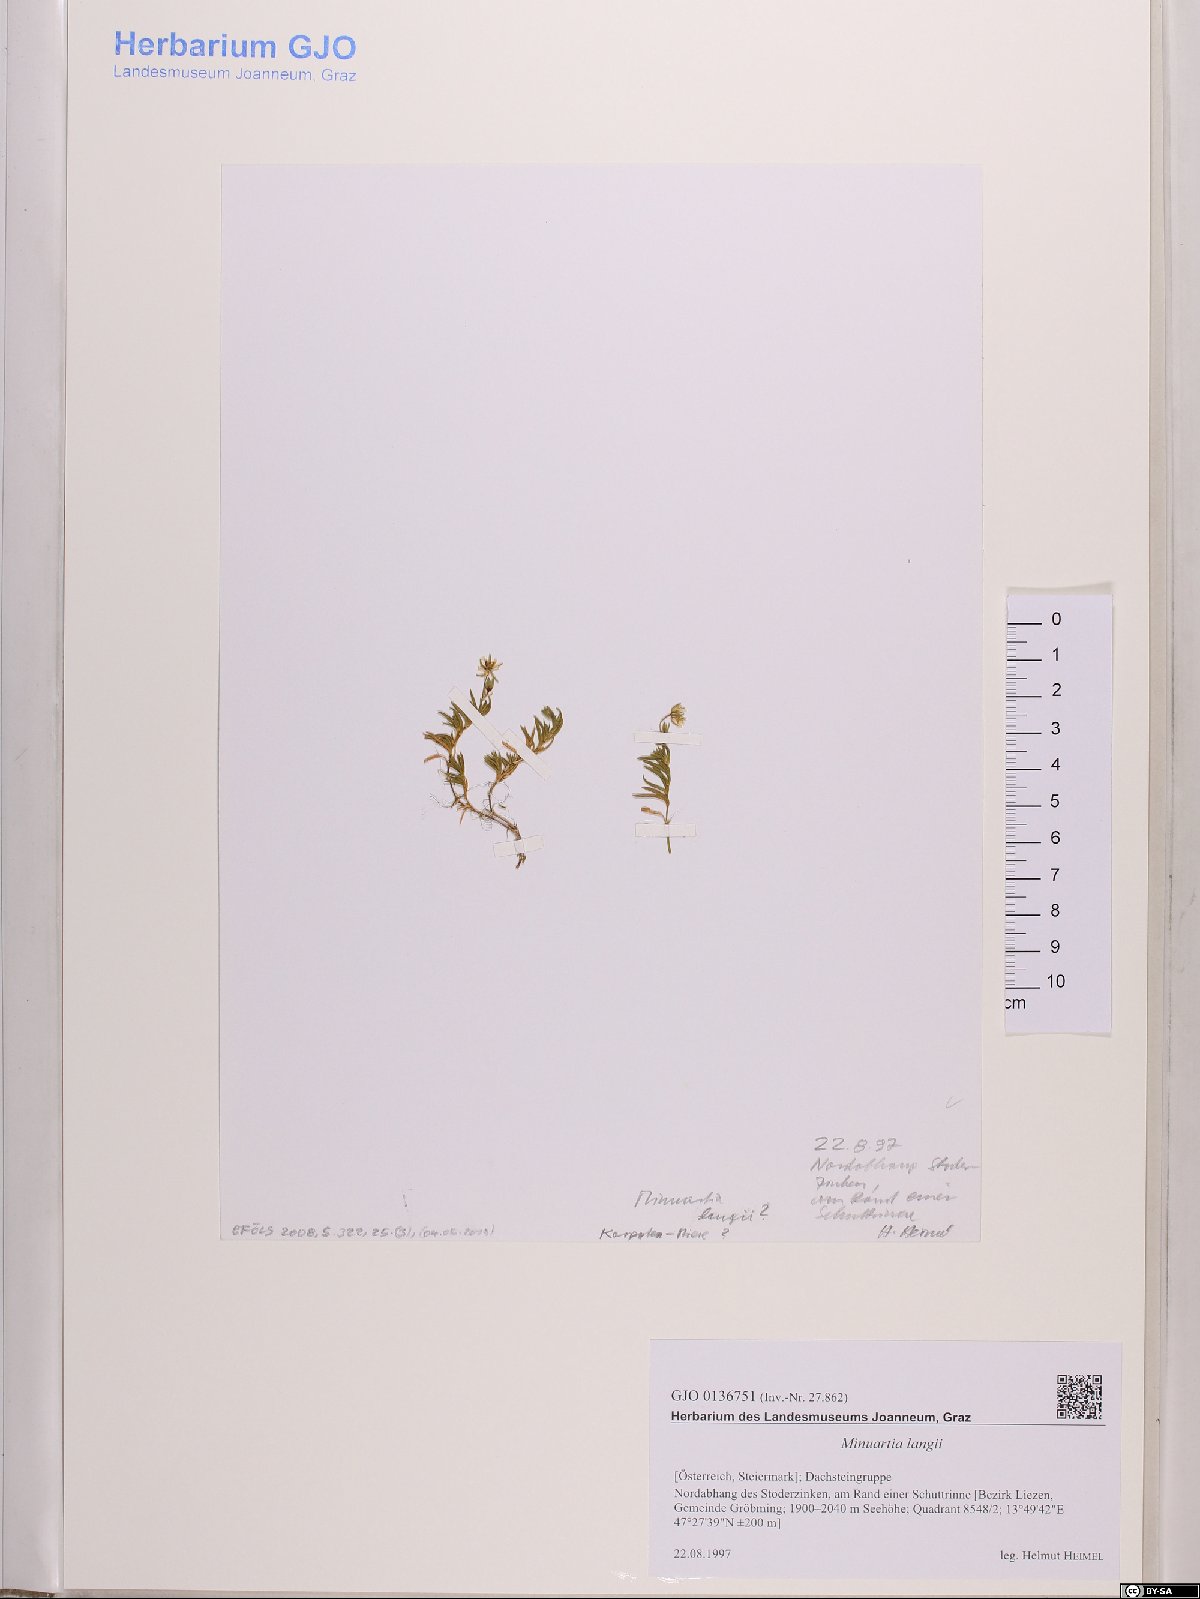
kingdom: Plantae
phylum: Tracheophyta
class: Magnoliopsida
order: Caryophyllales
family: Caryophyllaceae
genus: Cherleria
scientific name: Cherleria langii
